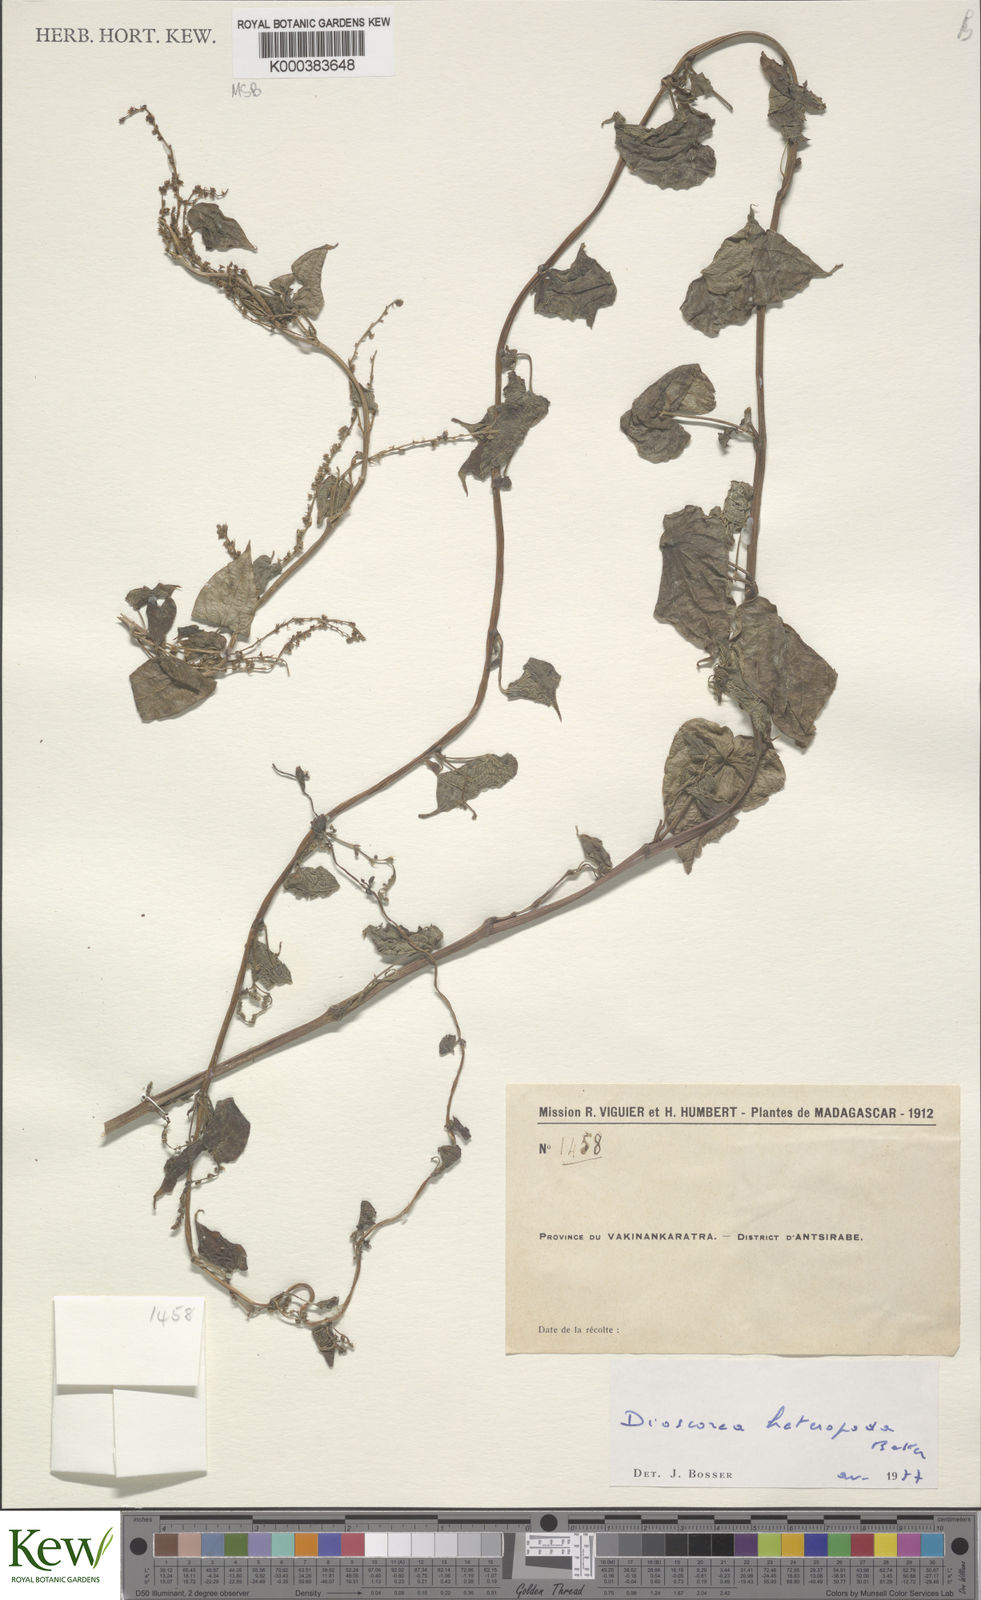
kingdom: Plantae
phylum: Tracheophyta
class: Liliopsida
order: Dioscoreales
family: Dioscoreaceae
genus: Dioscorea
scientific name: Dioscorea heteropoda
